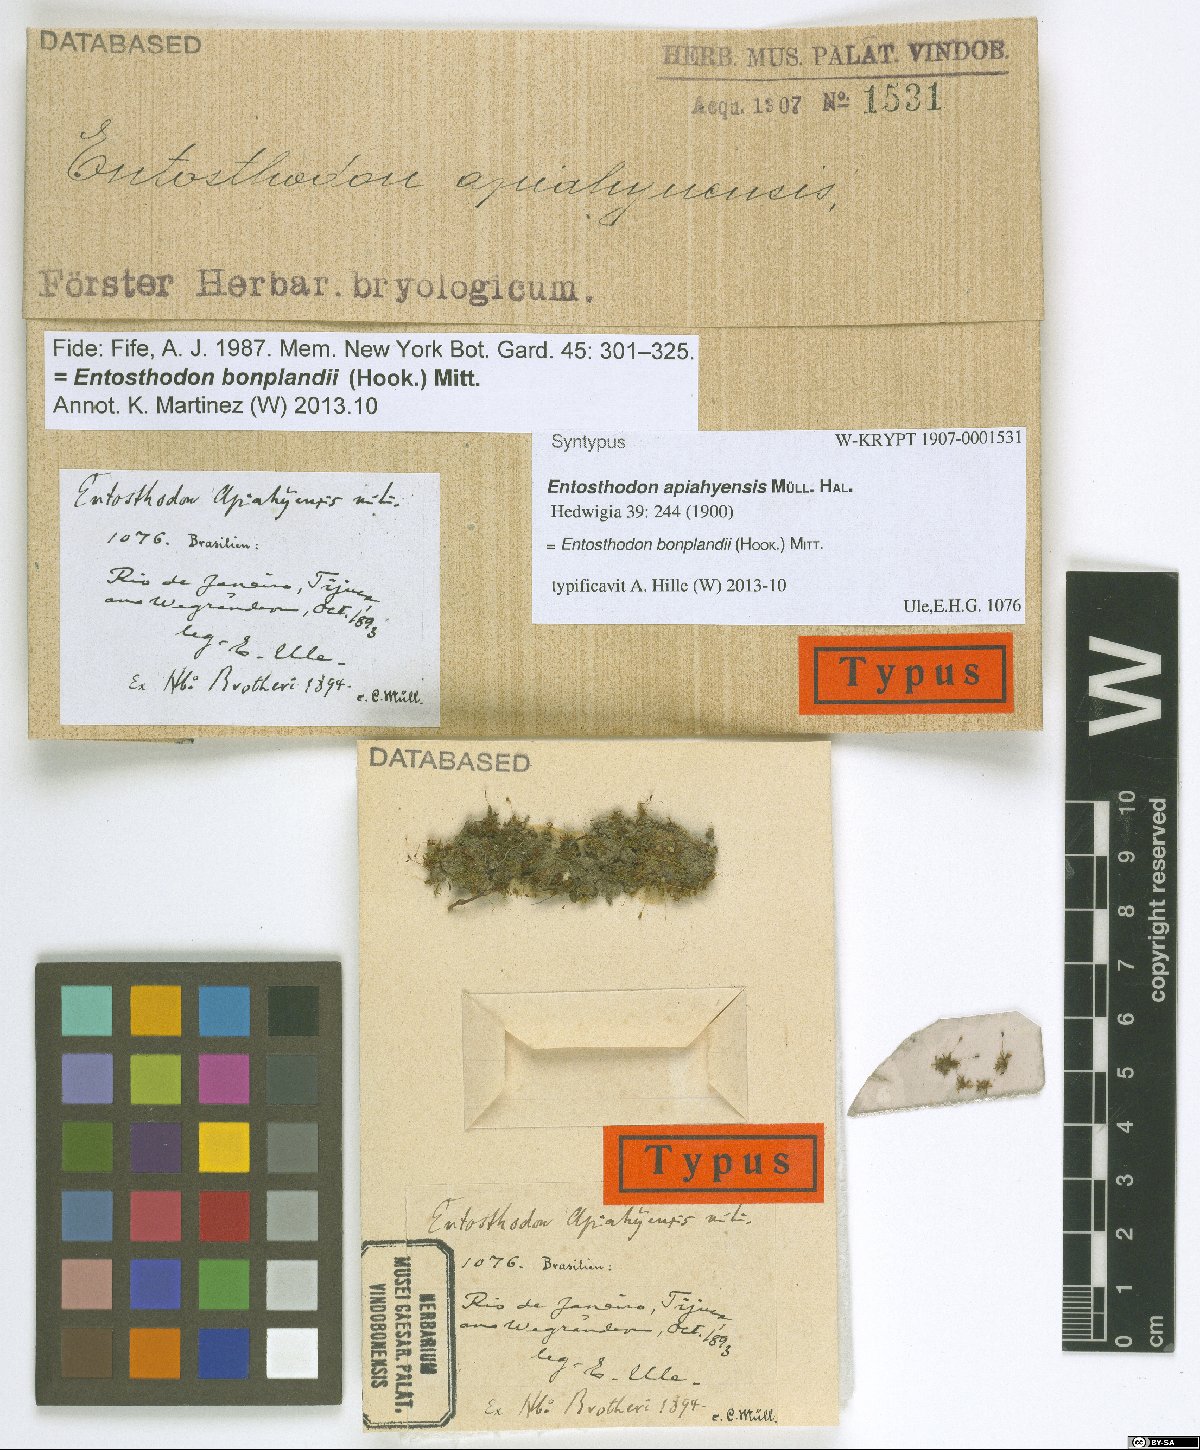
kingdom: Plantae
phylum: Bryophyta
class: Bryopsida
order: Funariales
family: Funariaceae
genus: Entosthodon
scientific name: Entosthodon bonplandii
